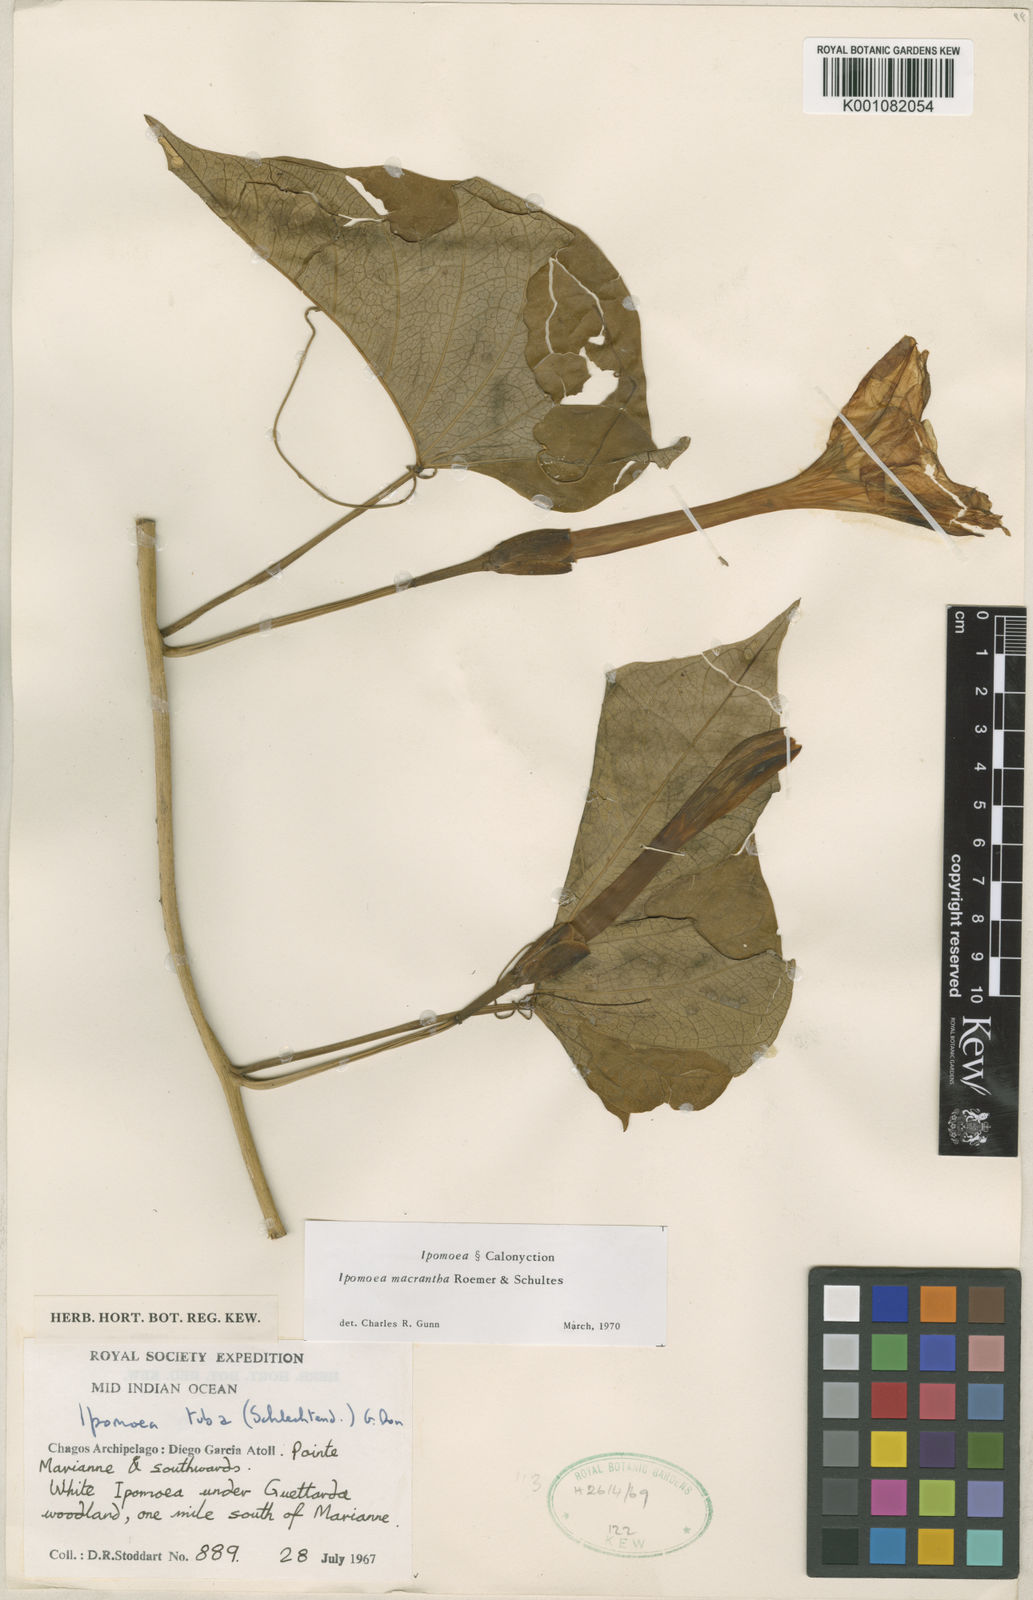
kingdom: Plantae
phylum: Tracheophyta
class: Magnoliopsida
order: Solanales
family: Convolvulaceae
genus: Ipomoea
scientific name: Ipomoea violacea
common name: Beach moonflower
